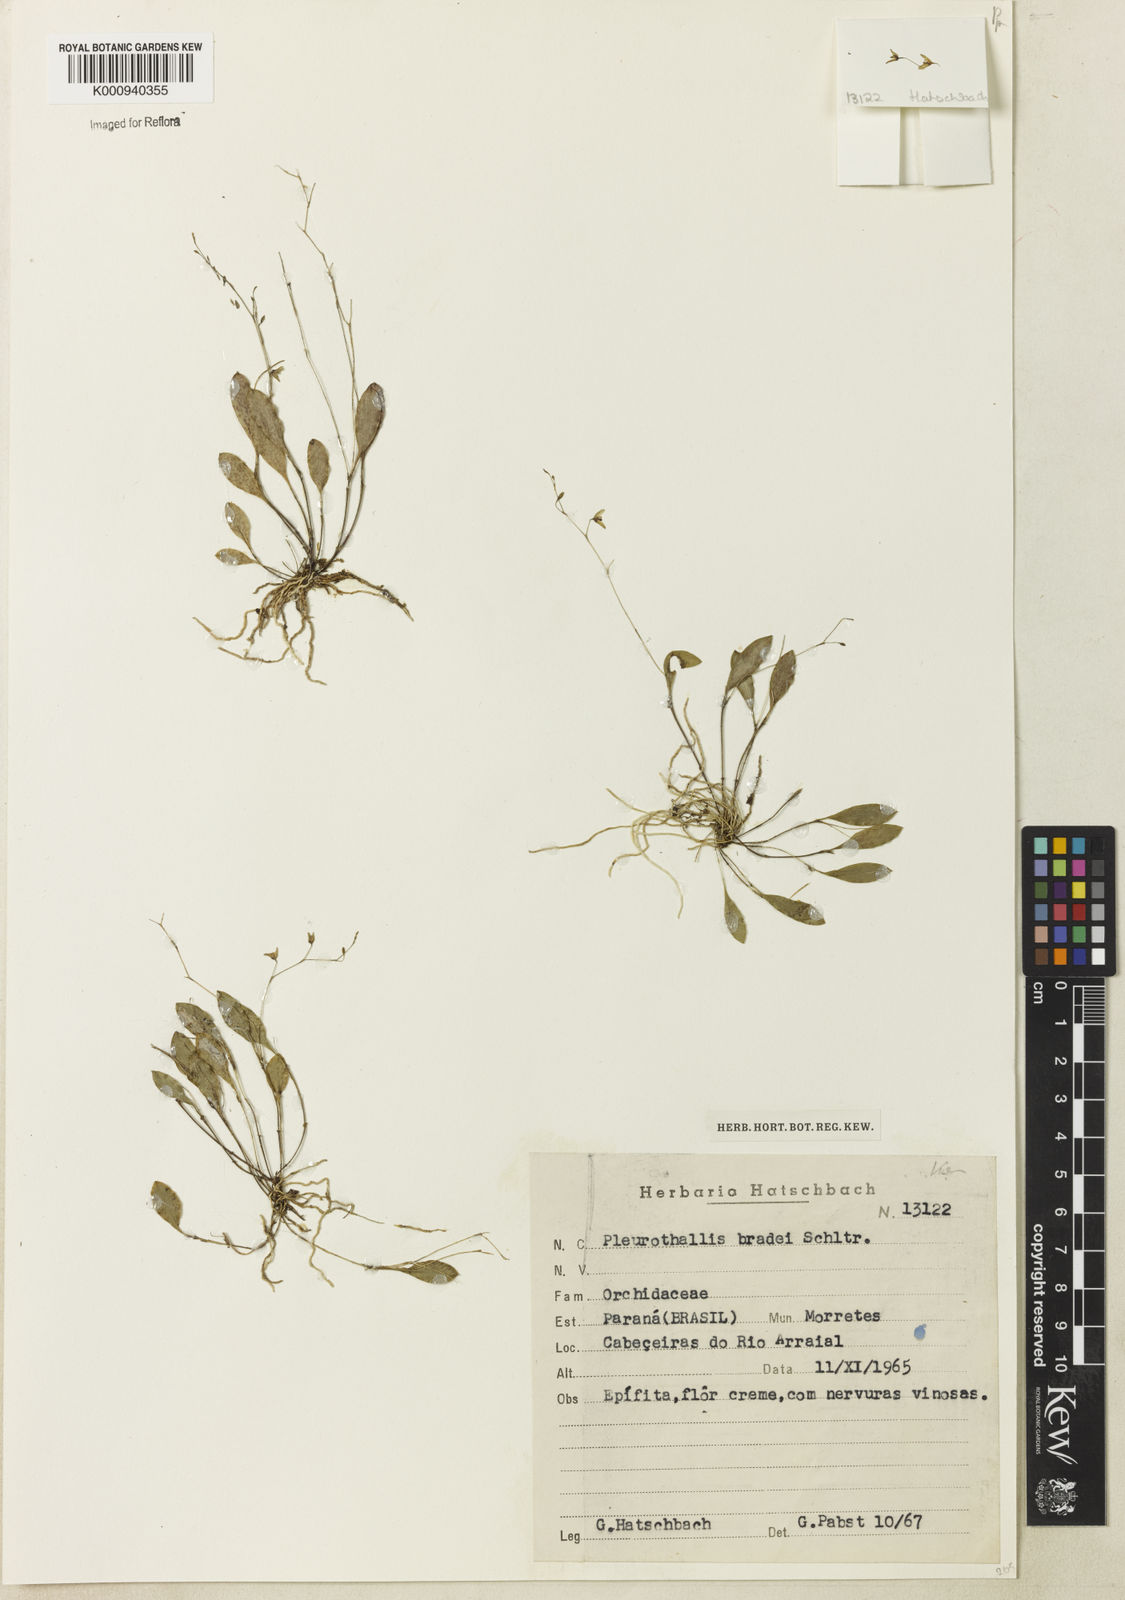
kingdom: Plantae
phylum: Tracheophyta
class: Liliopsida
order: Asparagales
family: Orchidaceae
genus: Pabstiella
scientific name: Pabstiella bradei
